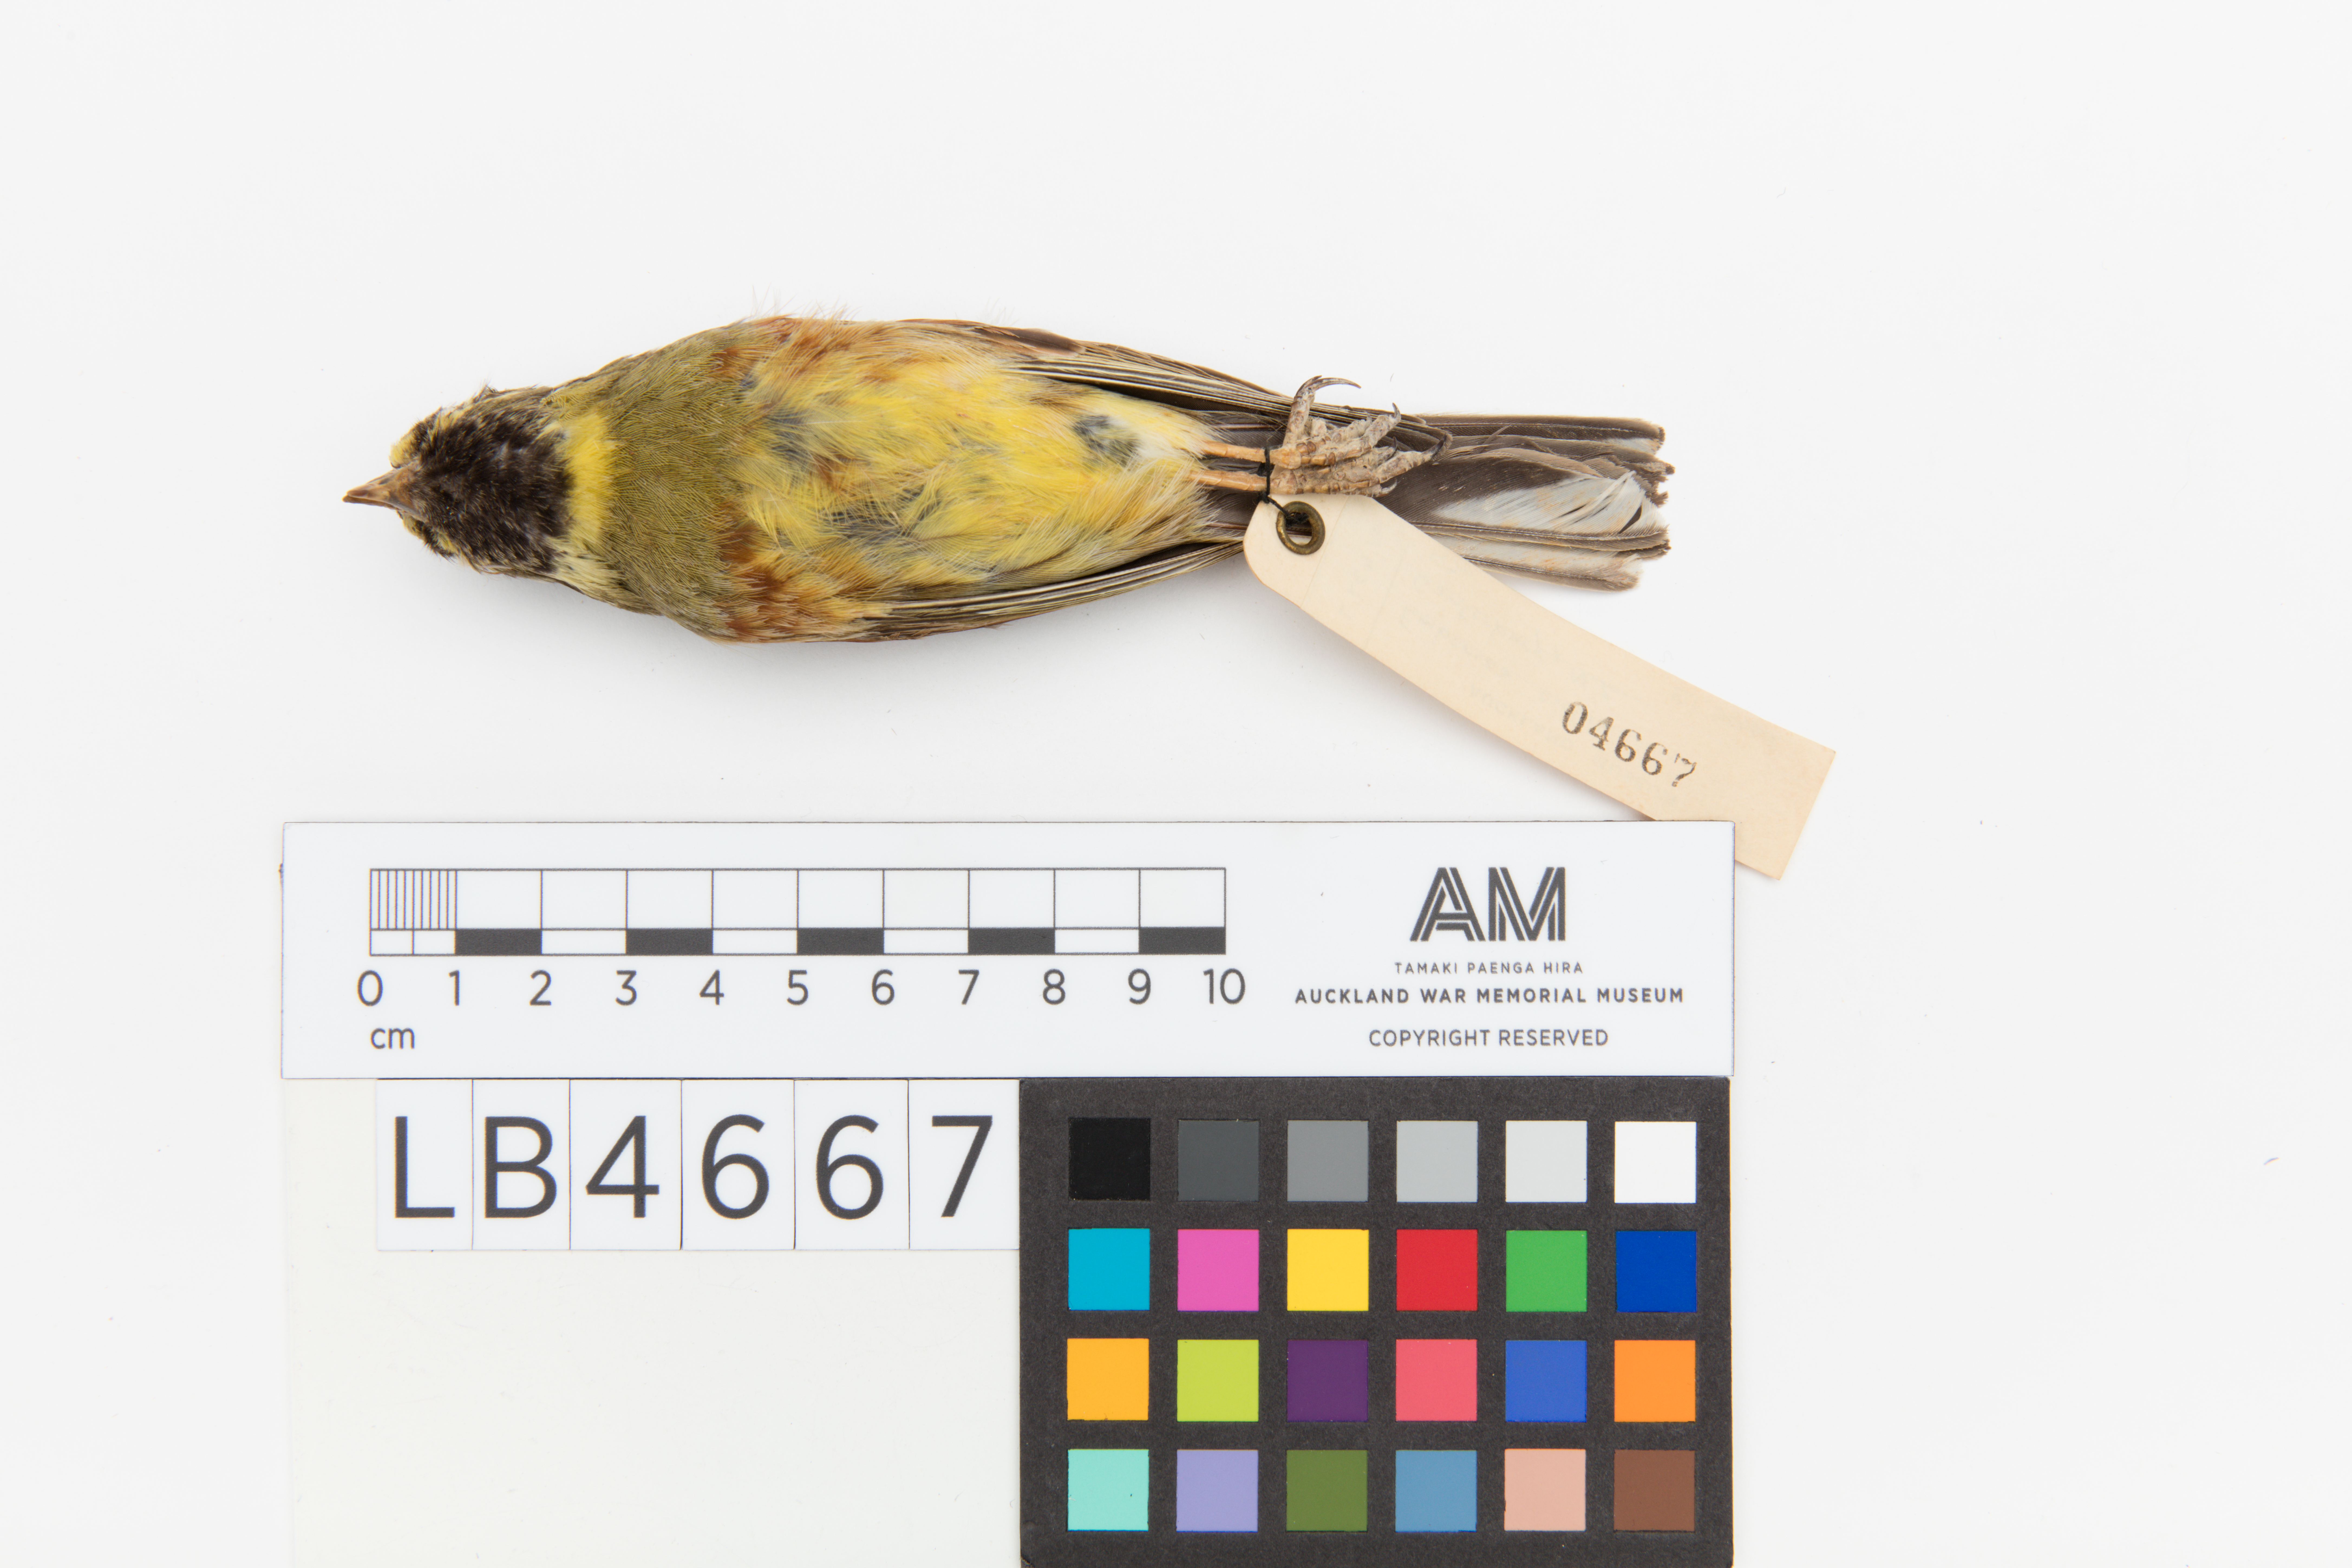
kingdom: Animalia
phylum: Chordata
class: Aves
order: Passeriformes
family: Emberizidae
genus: Emberiza
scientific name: Emberiza cirlus
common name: Cirl bunting
